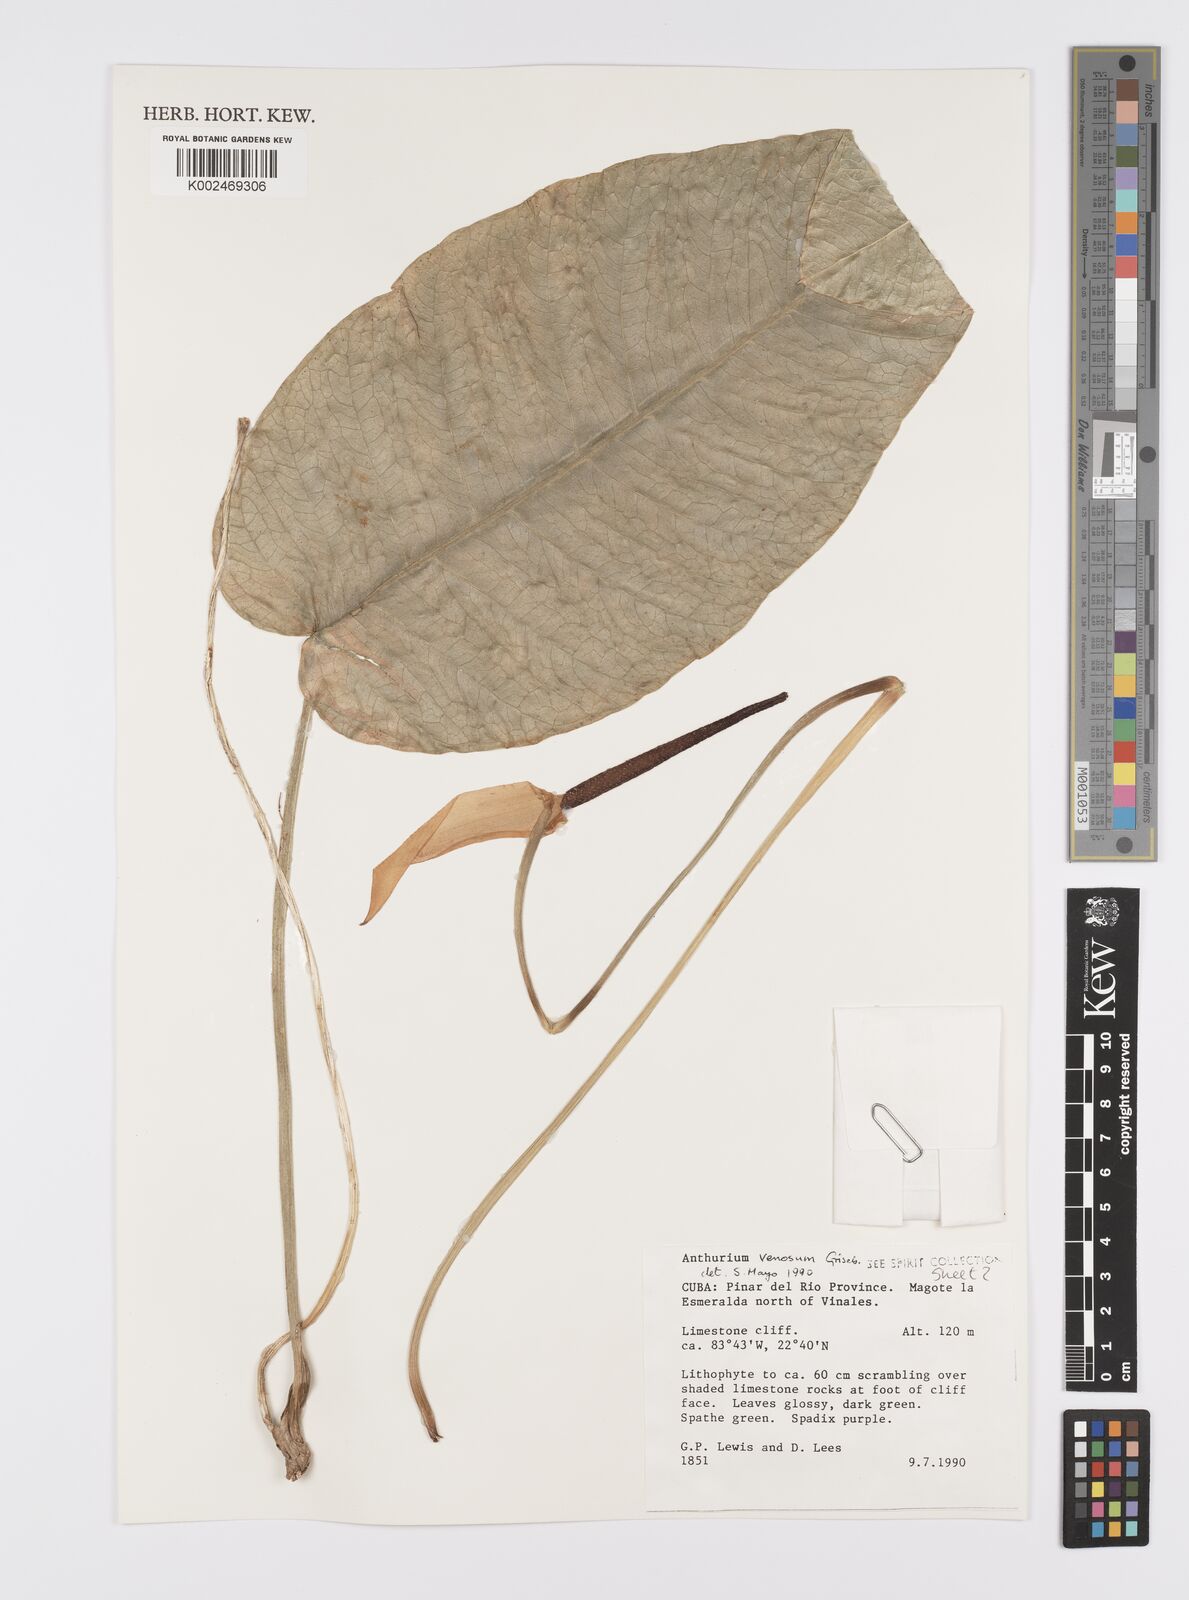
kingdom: Plantae
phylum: Tracheophyta
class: Liliopsida
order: Alismatales
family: Araceae
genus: Anthurium
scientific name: Anthurium venosum
